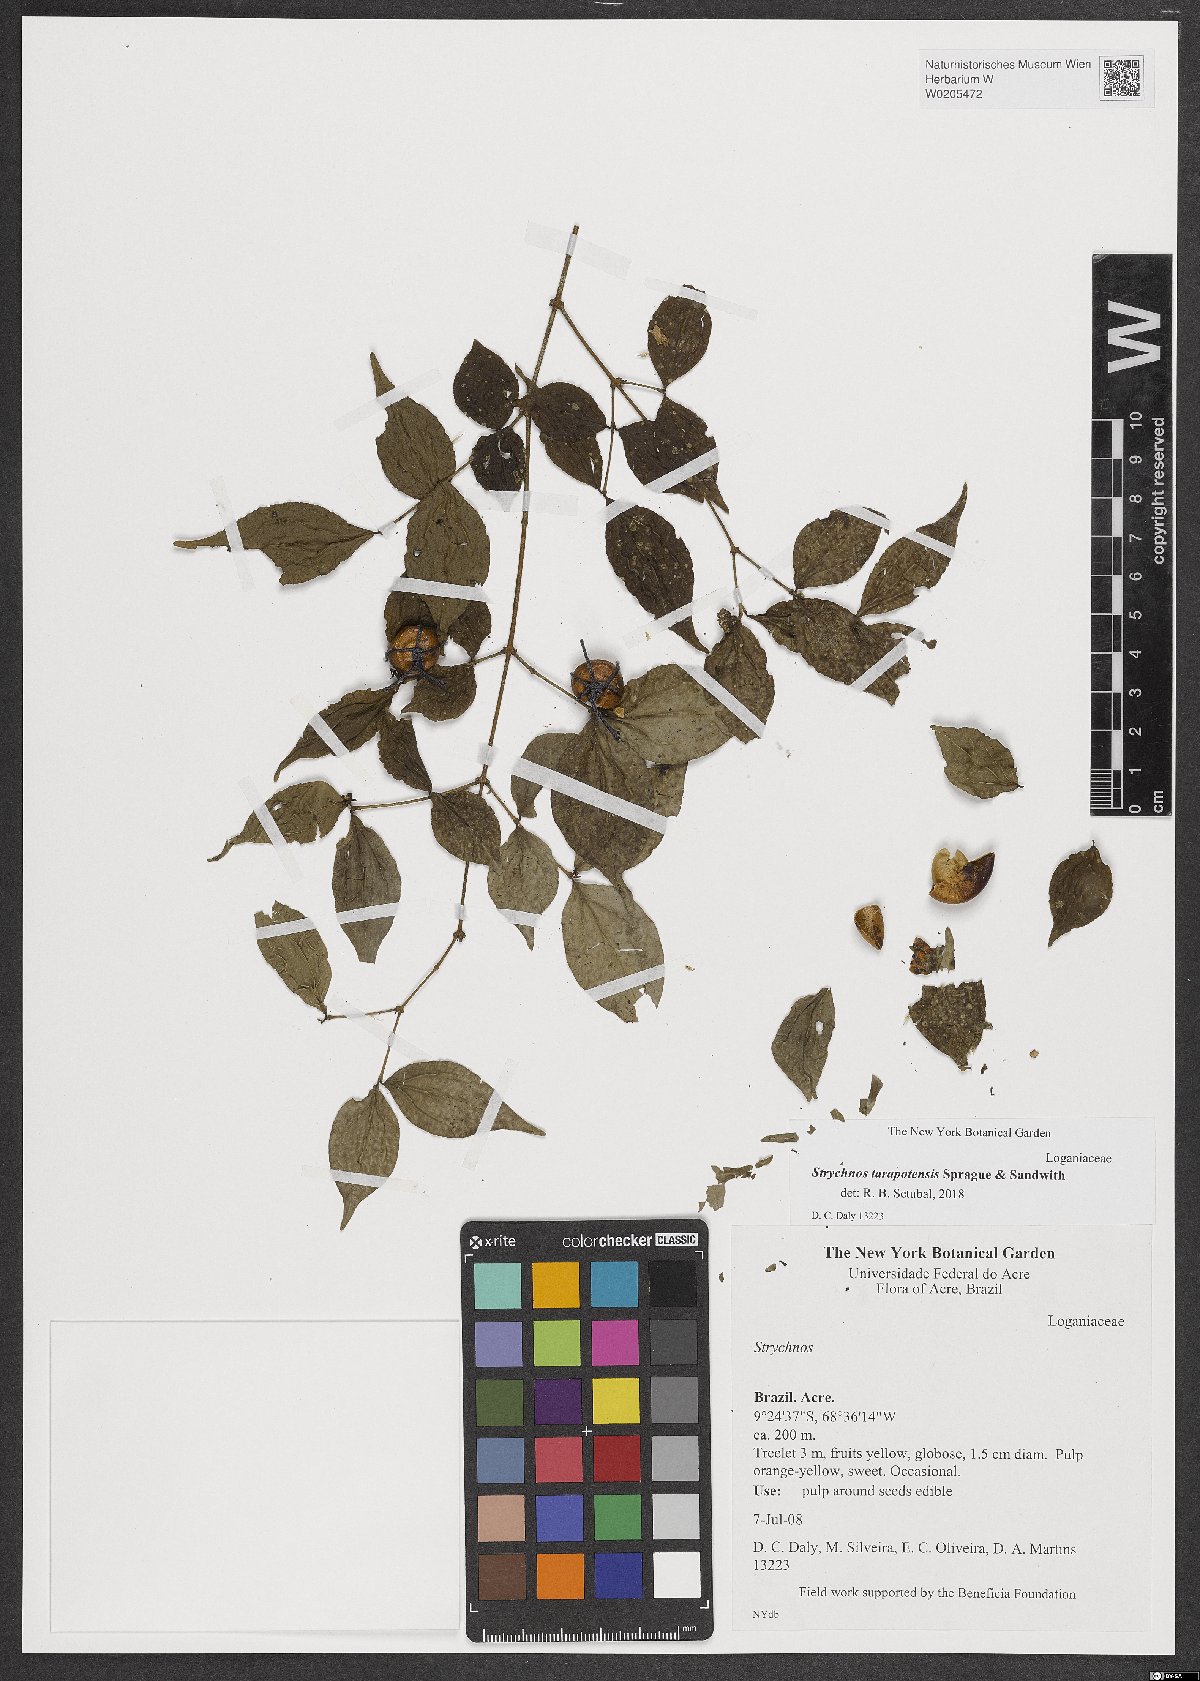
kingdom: Plantae
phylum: Tracheophyta
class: Magnoliopsida
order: Gentianales
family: Loganiaceae
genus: Strychnos
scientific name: Strychnos tarapotensis
